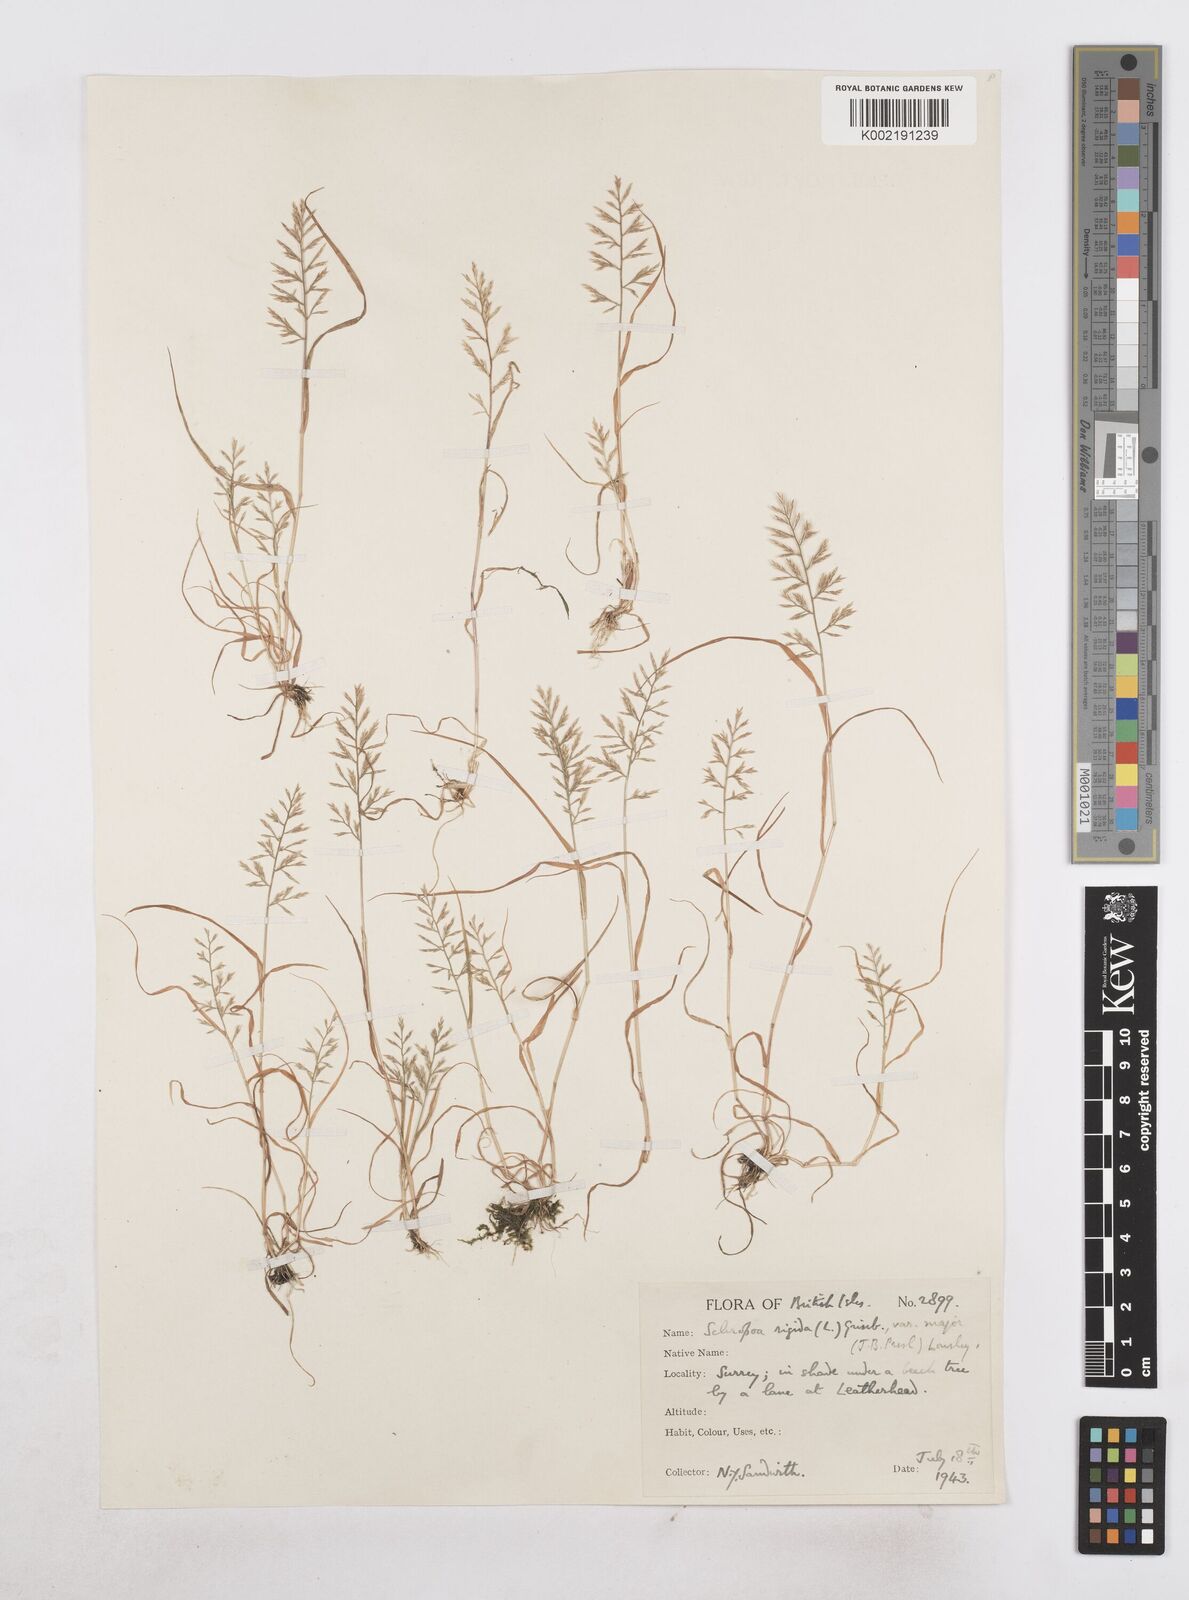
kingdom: Plantae
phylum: Tracheophyta
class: Liliopsida
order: Poales
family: Poaceae
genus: Catapodium
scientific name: Catapodium rigidum
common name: Fern-grass
